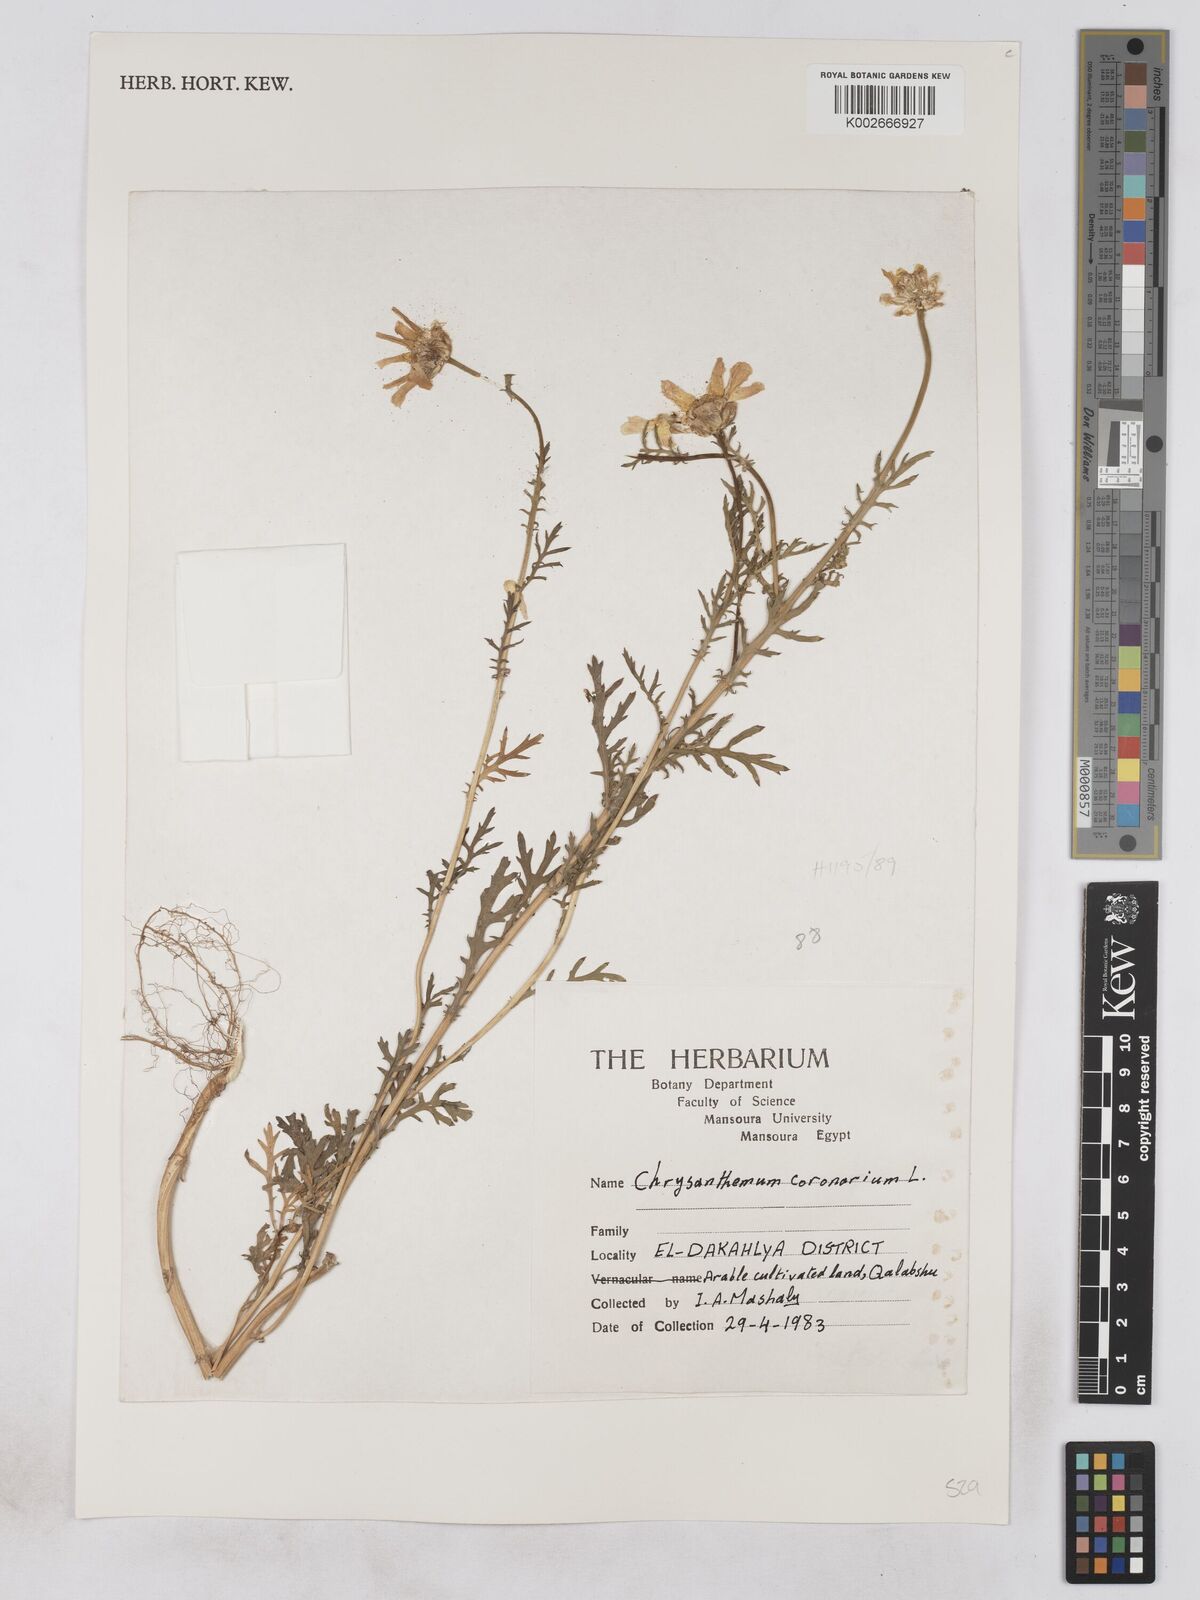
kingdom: Plantae
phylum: Tracheophyta
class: Magnoliopsida
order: Asterales
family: Asteraceae
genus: Glebionis
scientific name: Glebionis coronaria
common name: Crowndaisy
